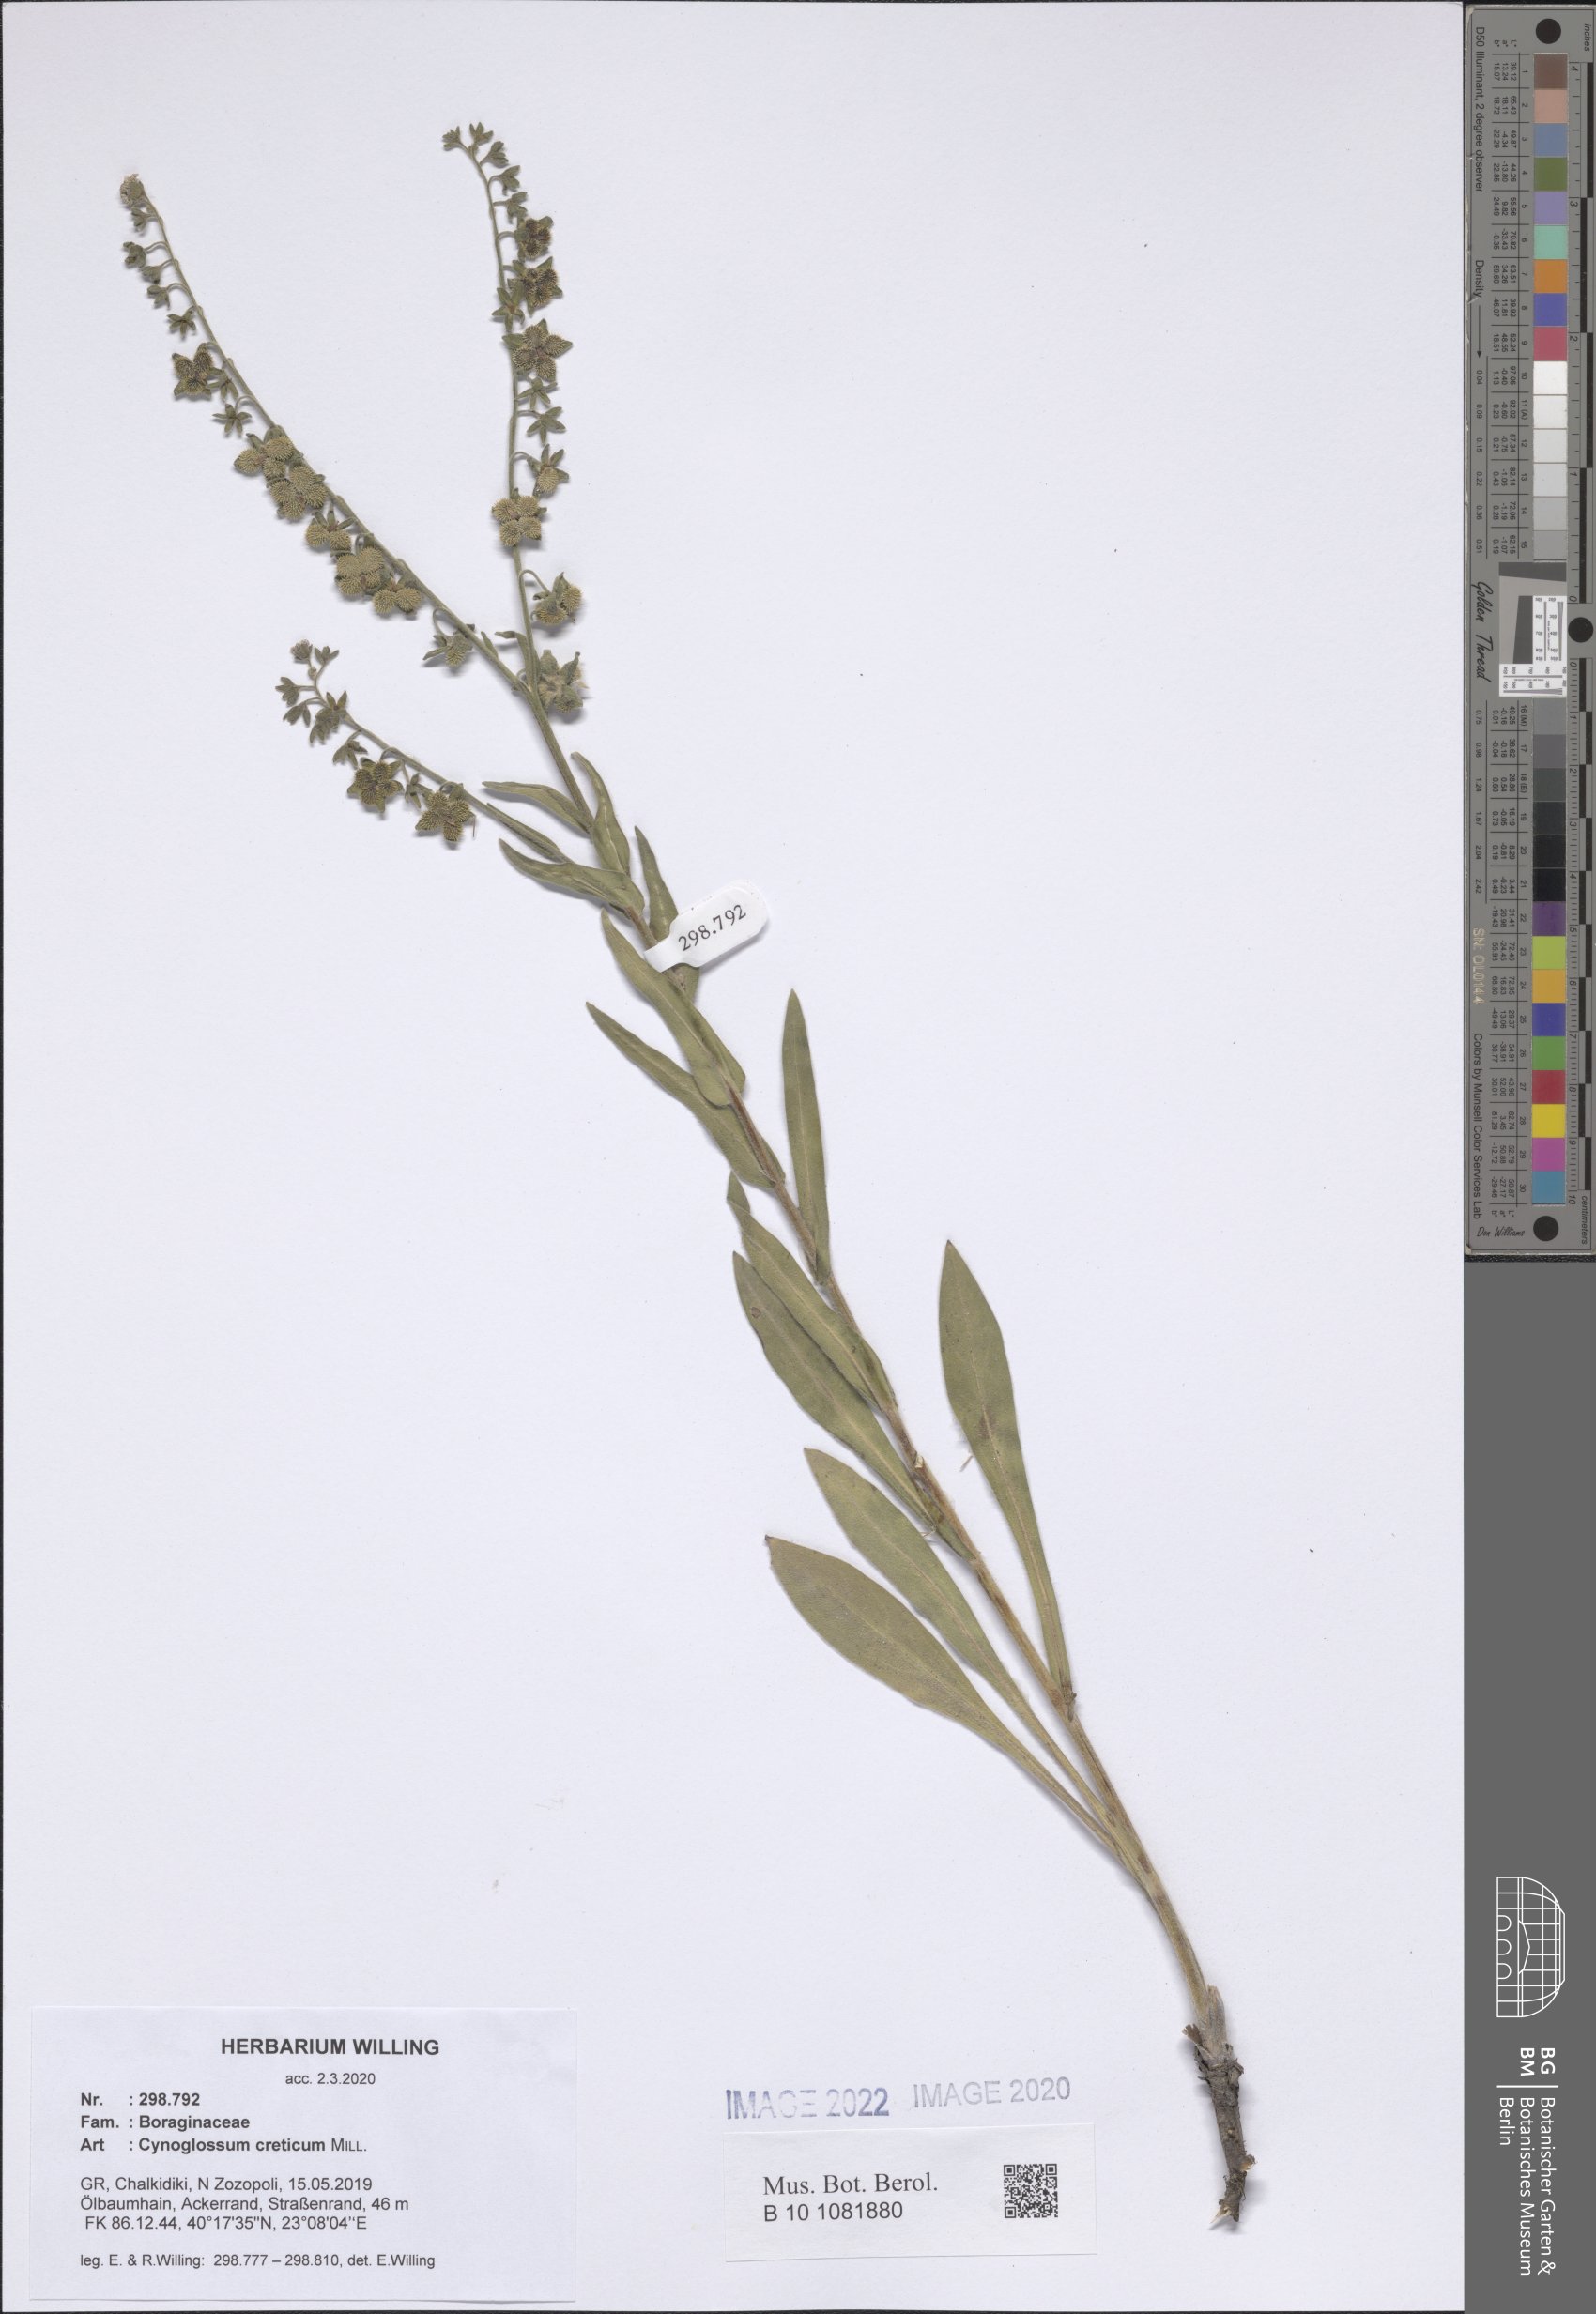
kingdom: Plantae
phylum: Tracheophyta
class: Magnoliopsida
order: Boraginales
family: Boraginaceae
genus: Cynoglossum
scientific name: Cynoglossum creticum
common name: Blue hound's tongue
